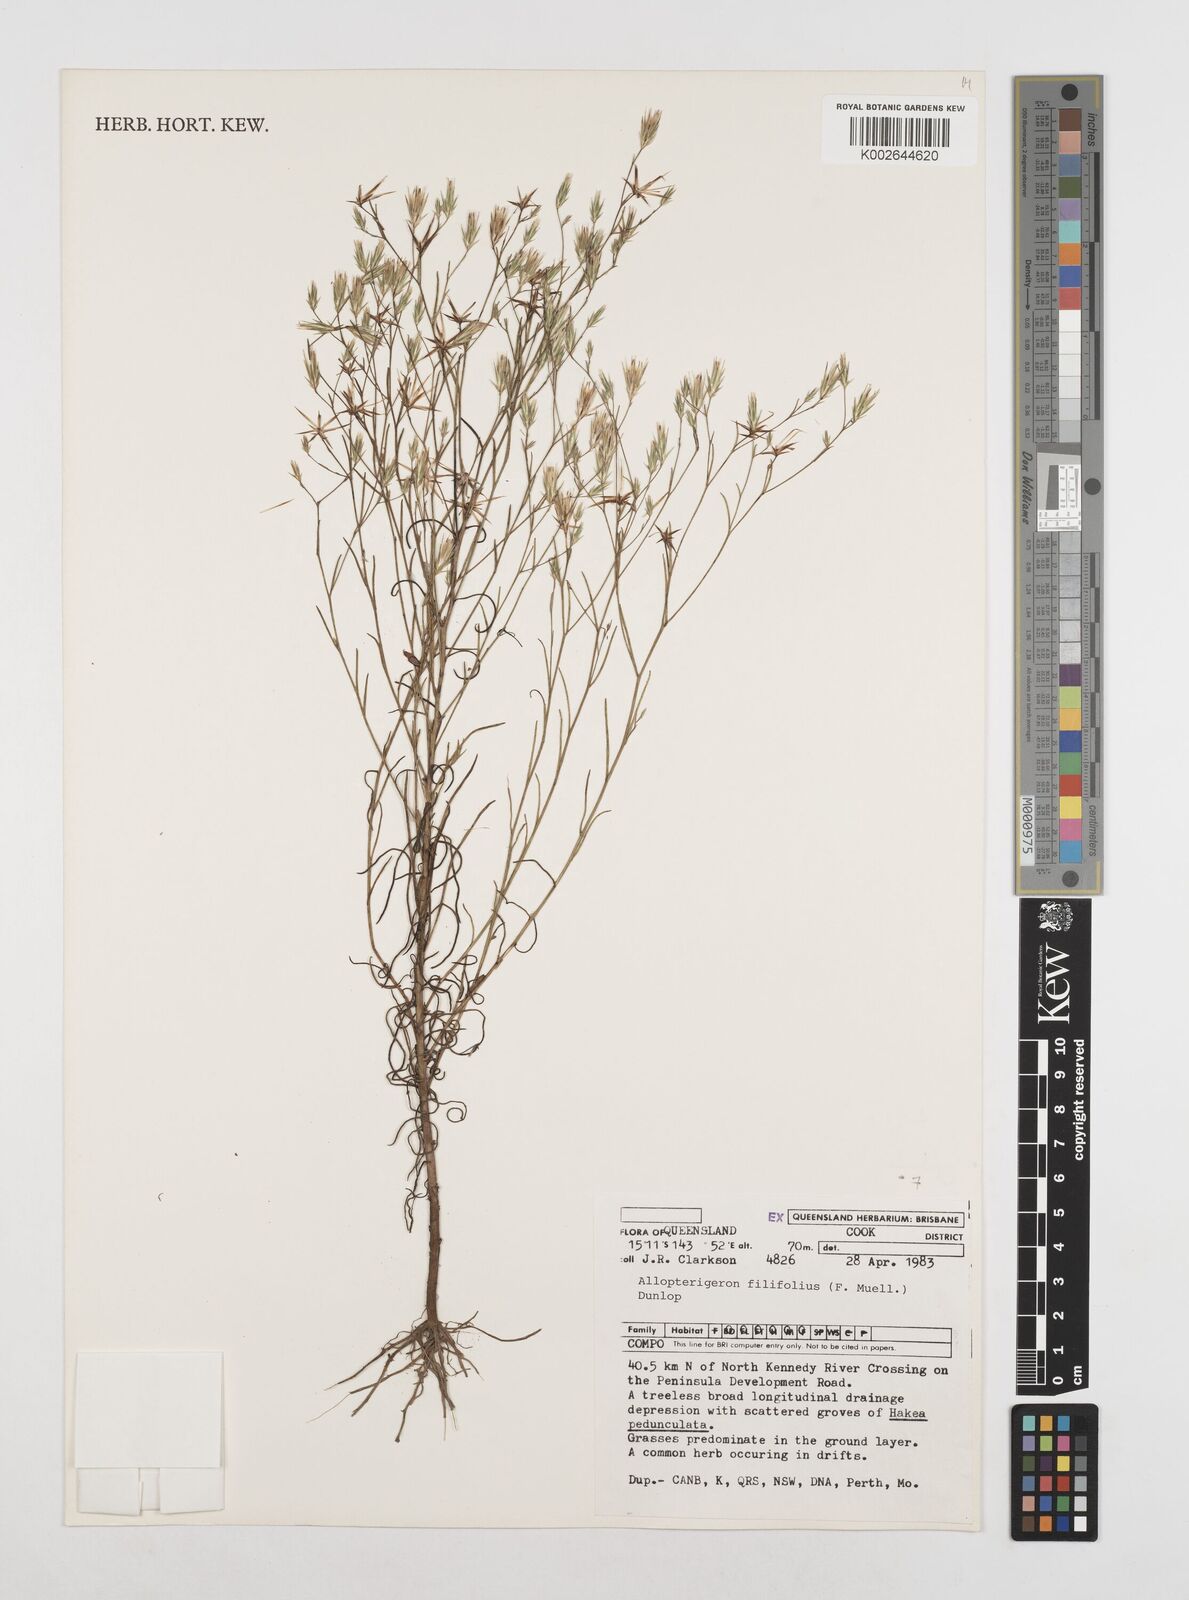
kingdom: Plantae
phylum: Tracheophyta
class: Magnoliopsida
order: Asterales
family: Asteraceae
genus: Allopterigeron
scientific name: Allopterigeron filifolius
